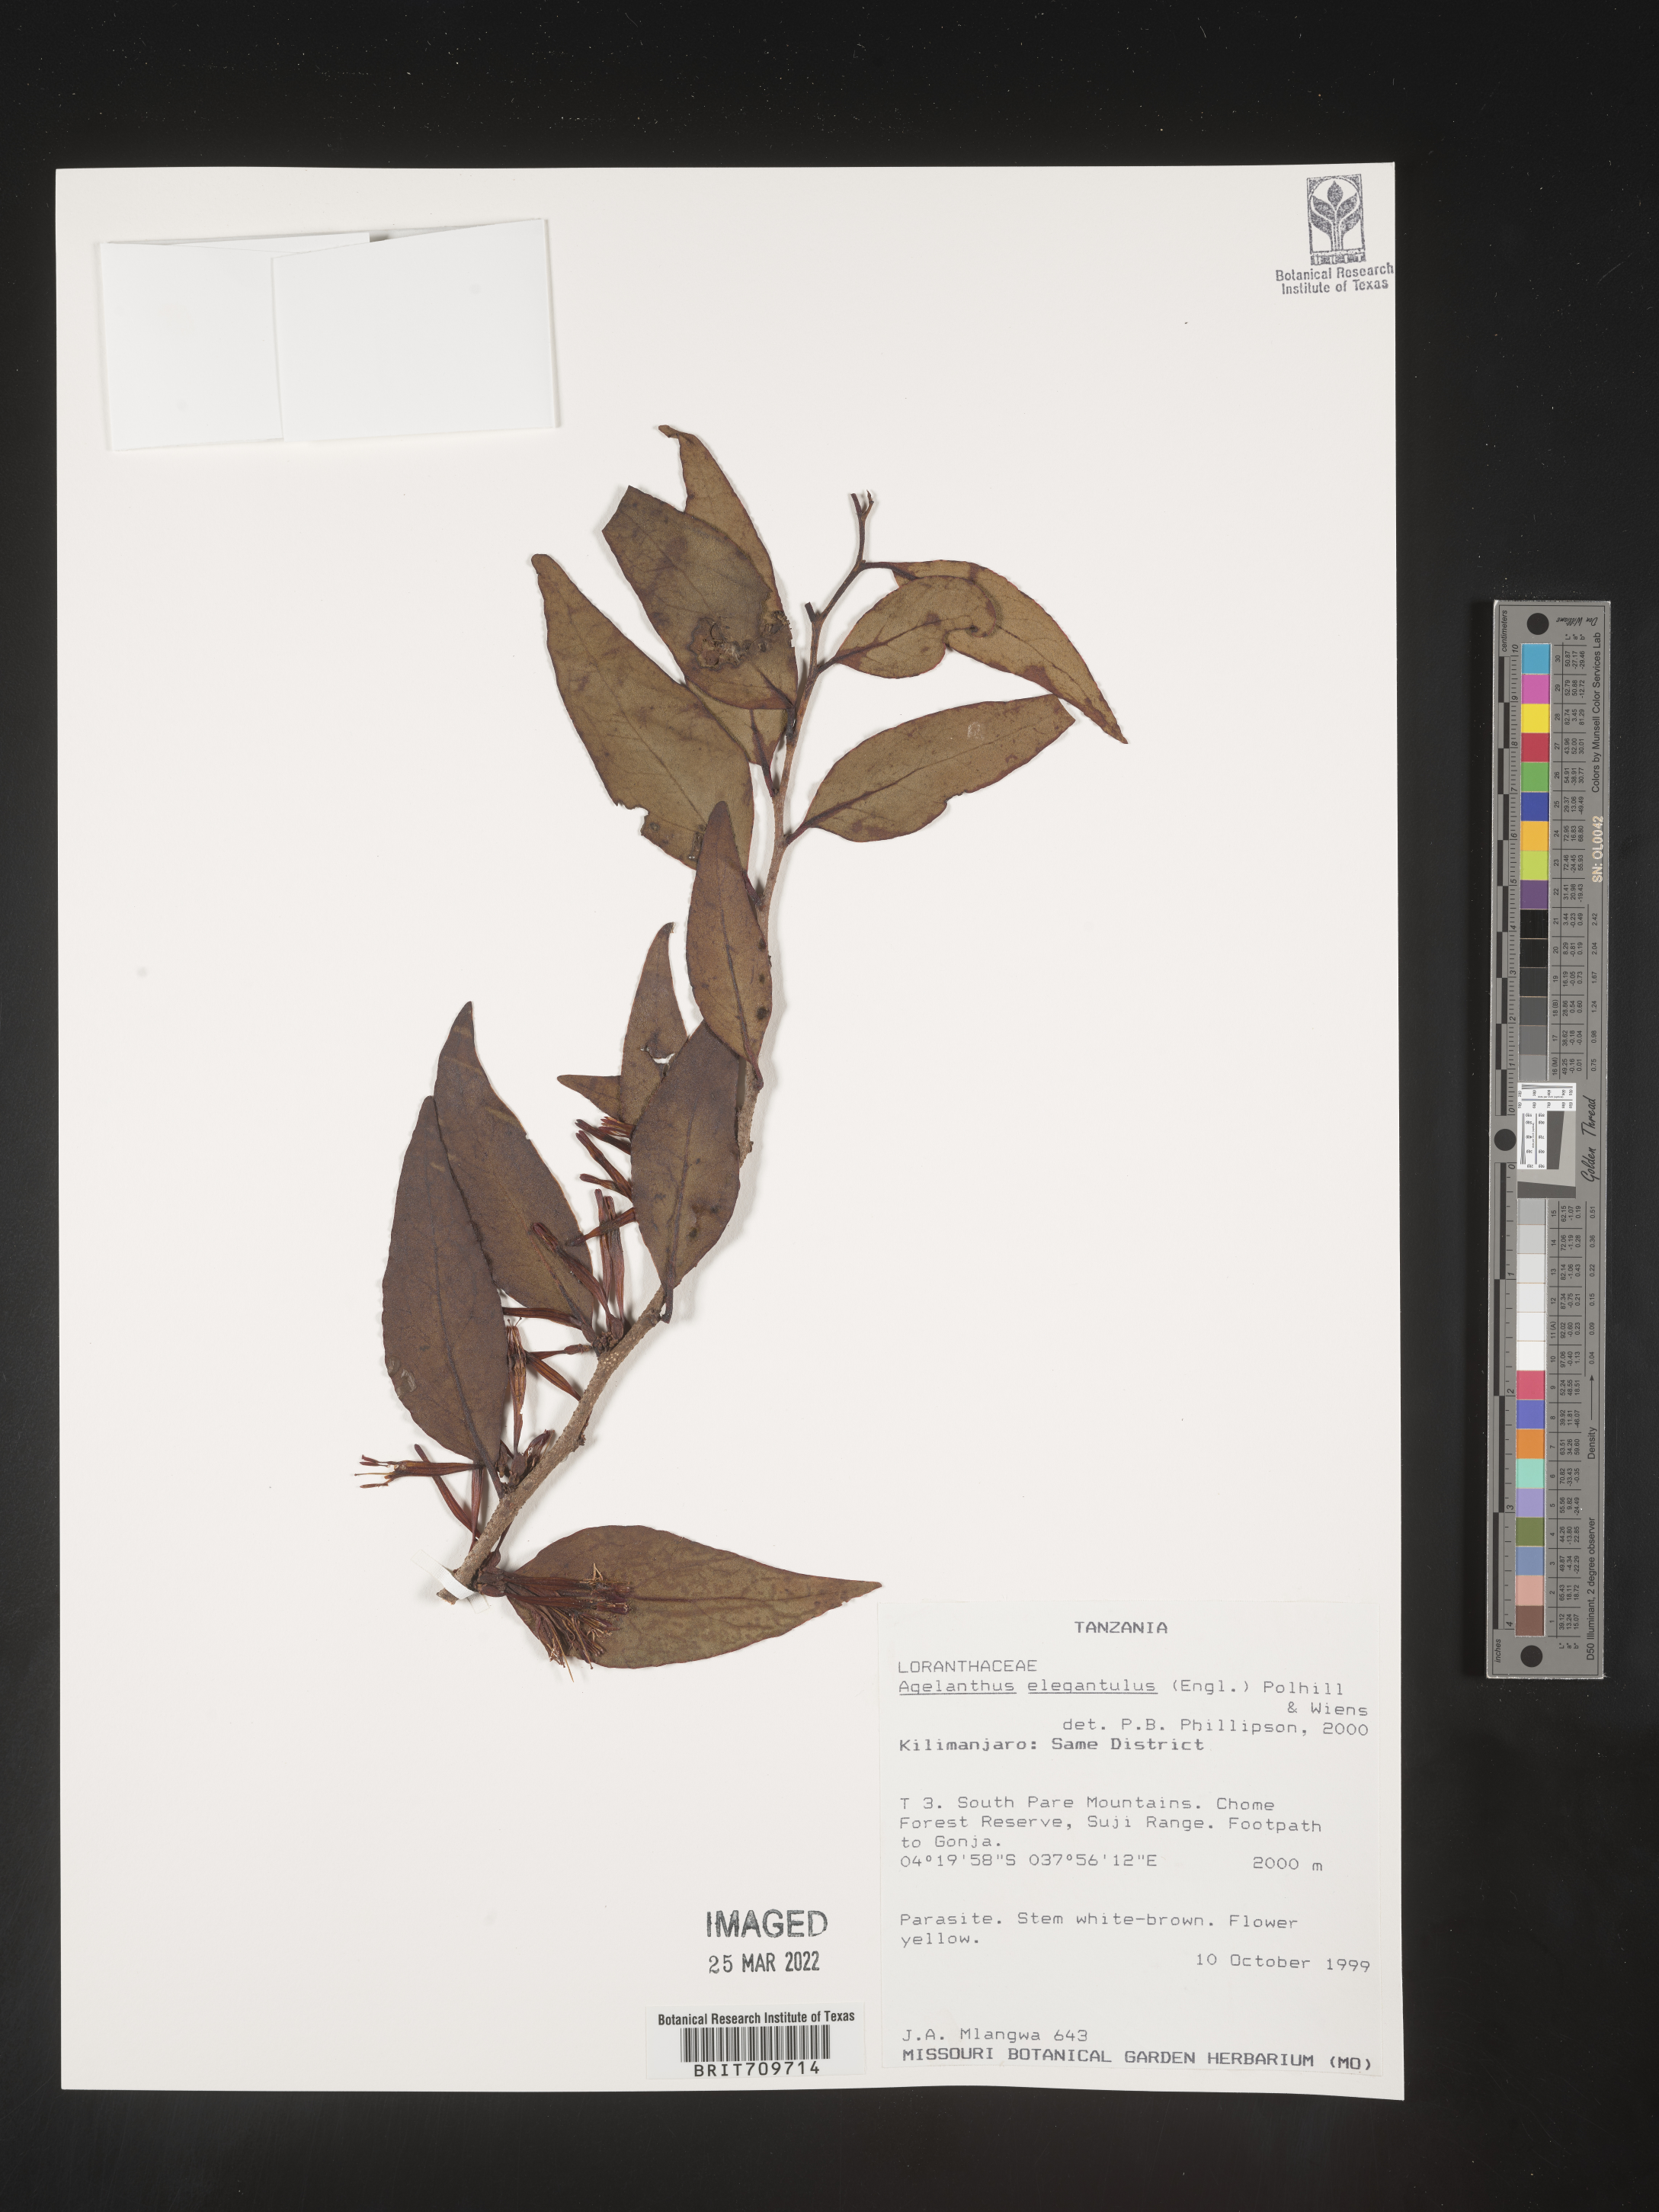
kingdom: Plantae
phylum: Tracheophyta
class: Magnoliopsida
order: Santalales
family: Loranthaceae
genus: Agelanthus
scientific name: Agelanthus
